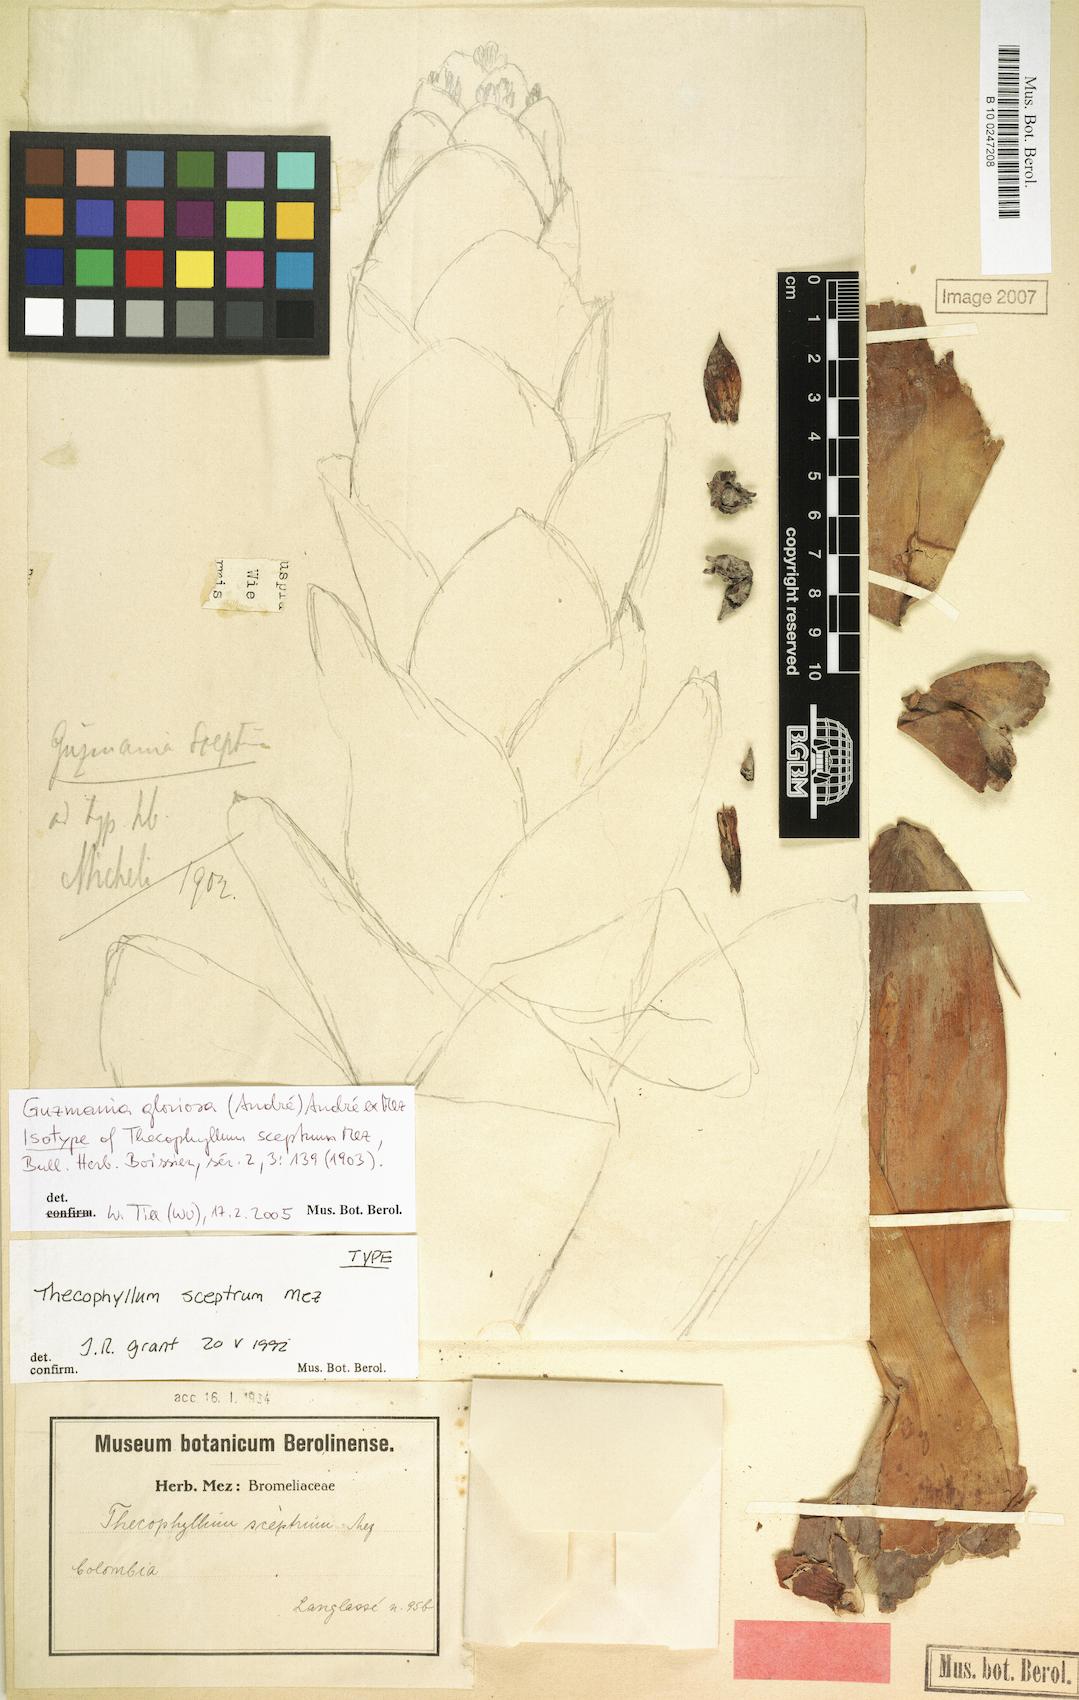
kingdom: Plantae
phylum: Tracheophyta
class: Liliopsida
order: Poales
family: Bromeliaceae
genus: Guzmania
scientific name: Guzmania gloriosa
